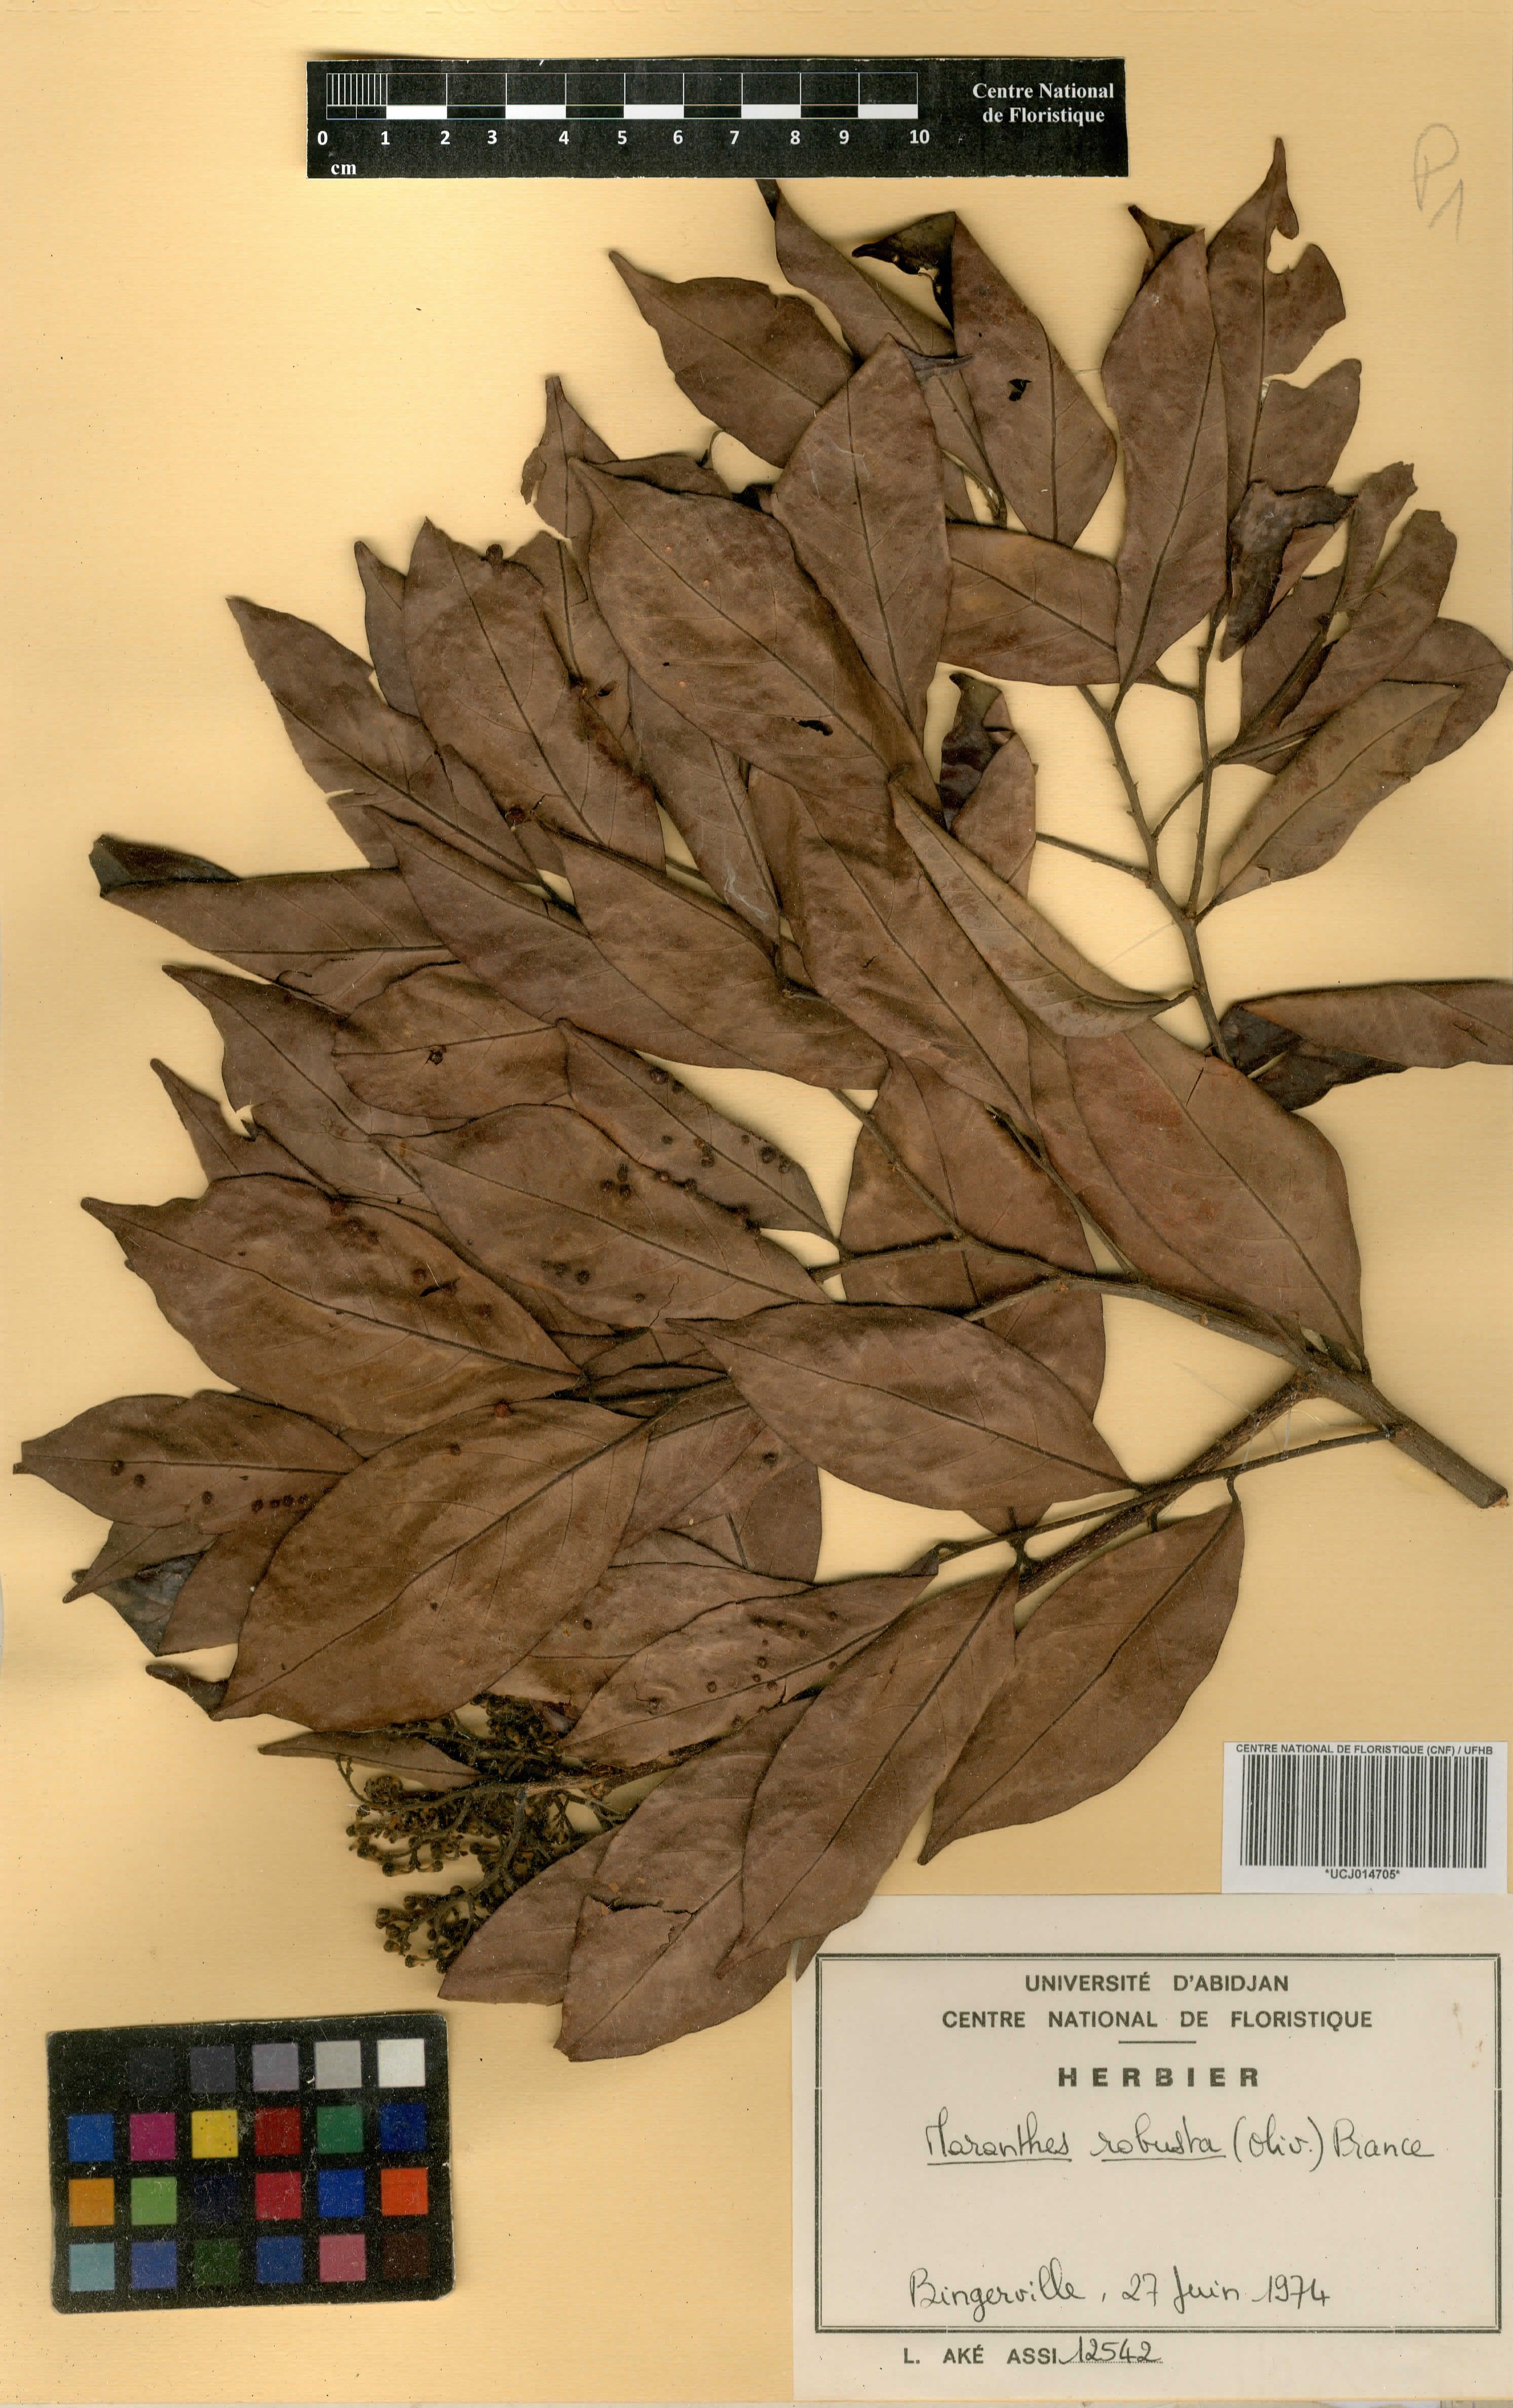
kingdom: Plantae
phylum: Tracheophyta
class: Magnoliopsida
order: Malpighiales
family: Chrysobalanaceae
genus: Maranthes
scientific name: Maranthes robusta
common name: Benin mahogany
